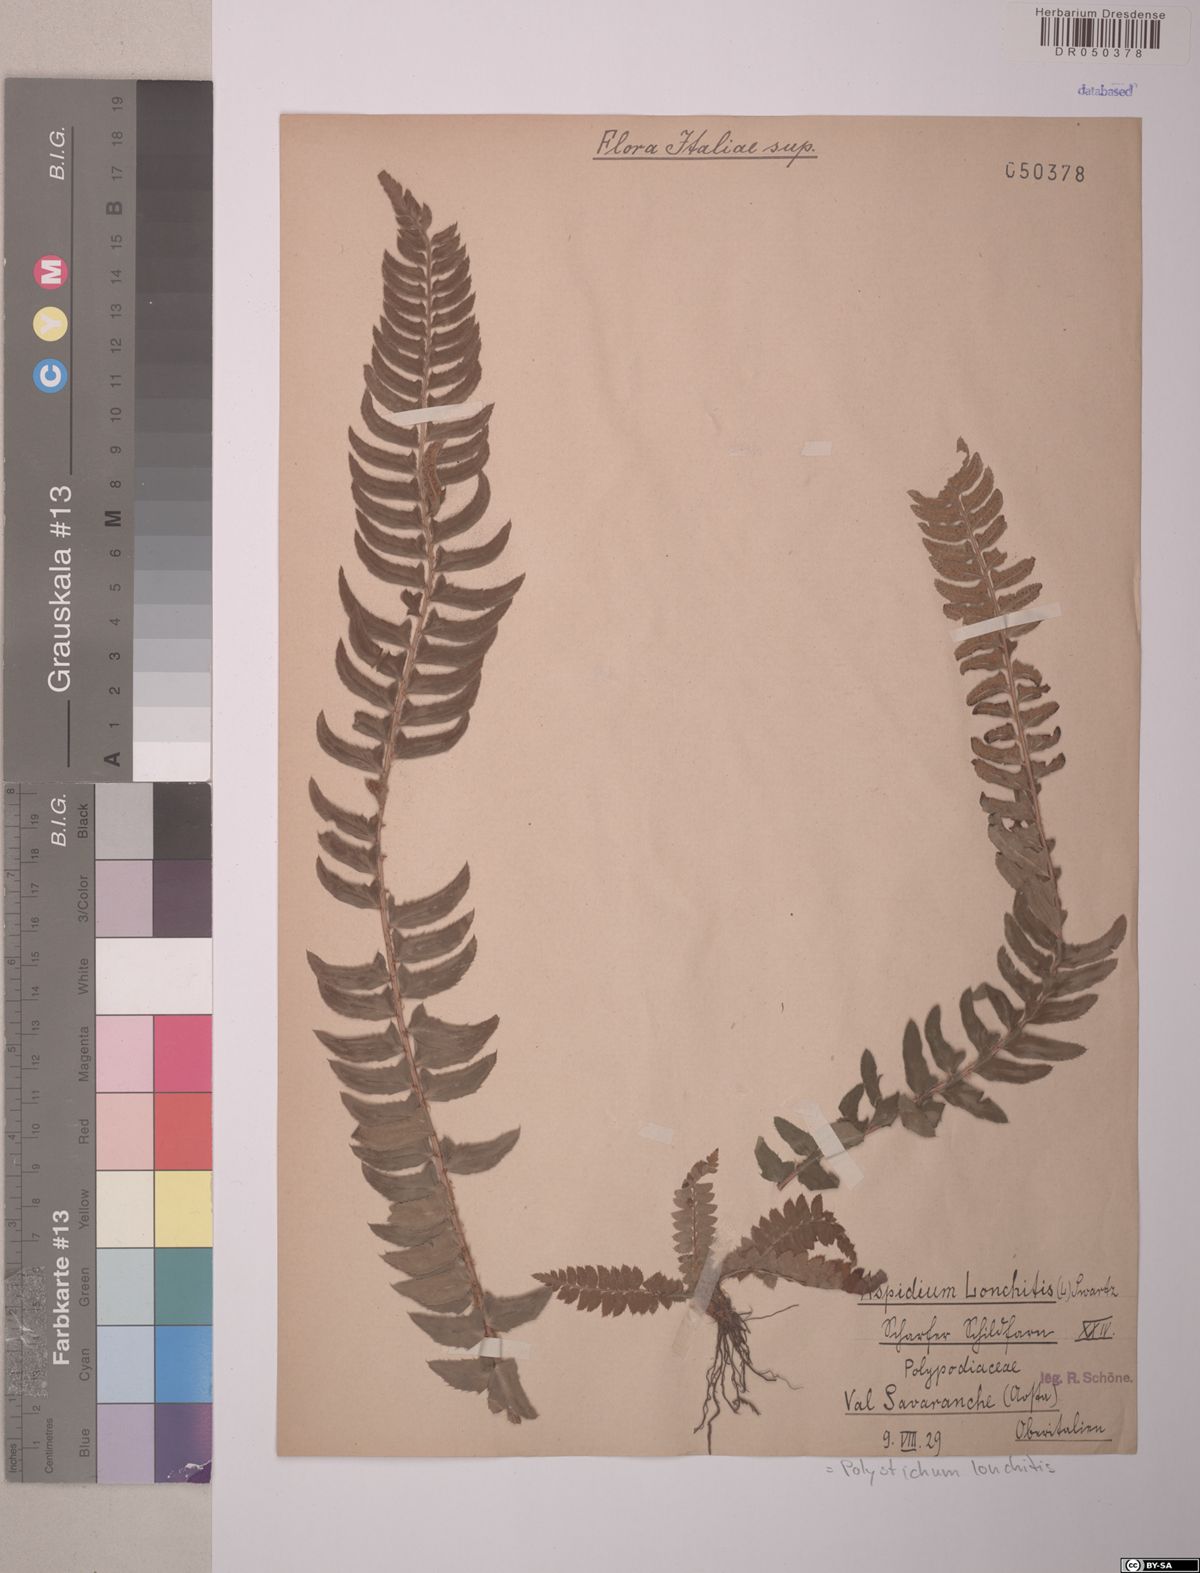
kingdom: Plantae
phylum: Tracheophyta
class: Polypodiopsida
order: Polypodiales
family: Dryopteridaceae
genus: Polystichum
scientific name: Polystichum lonchitis
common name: Holly fern
